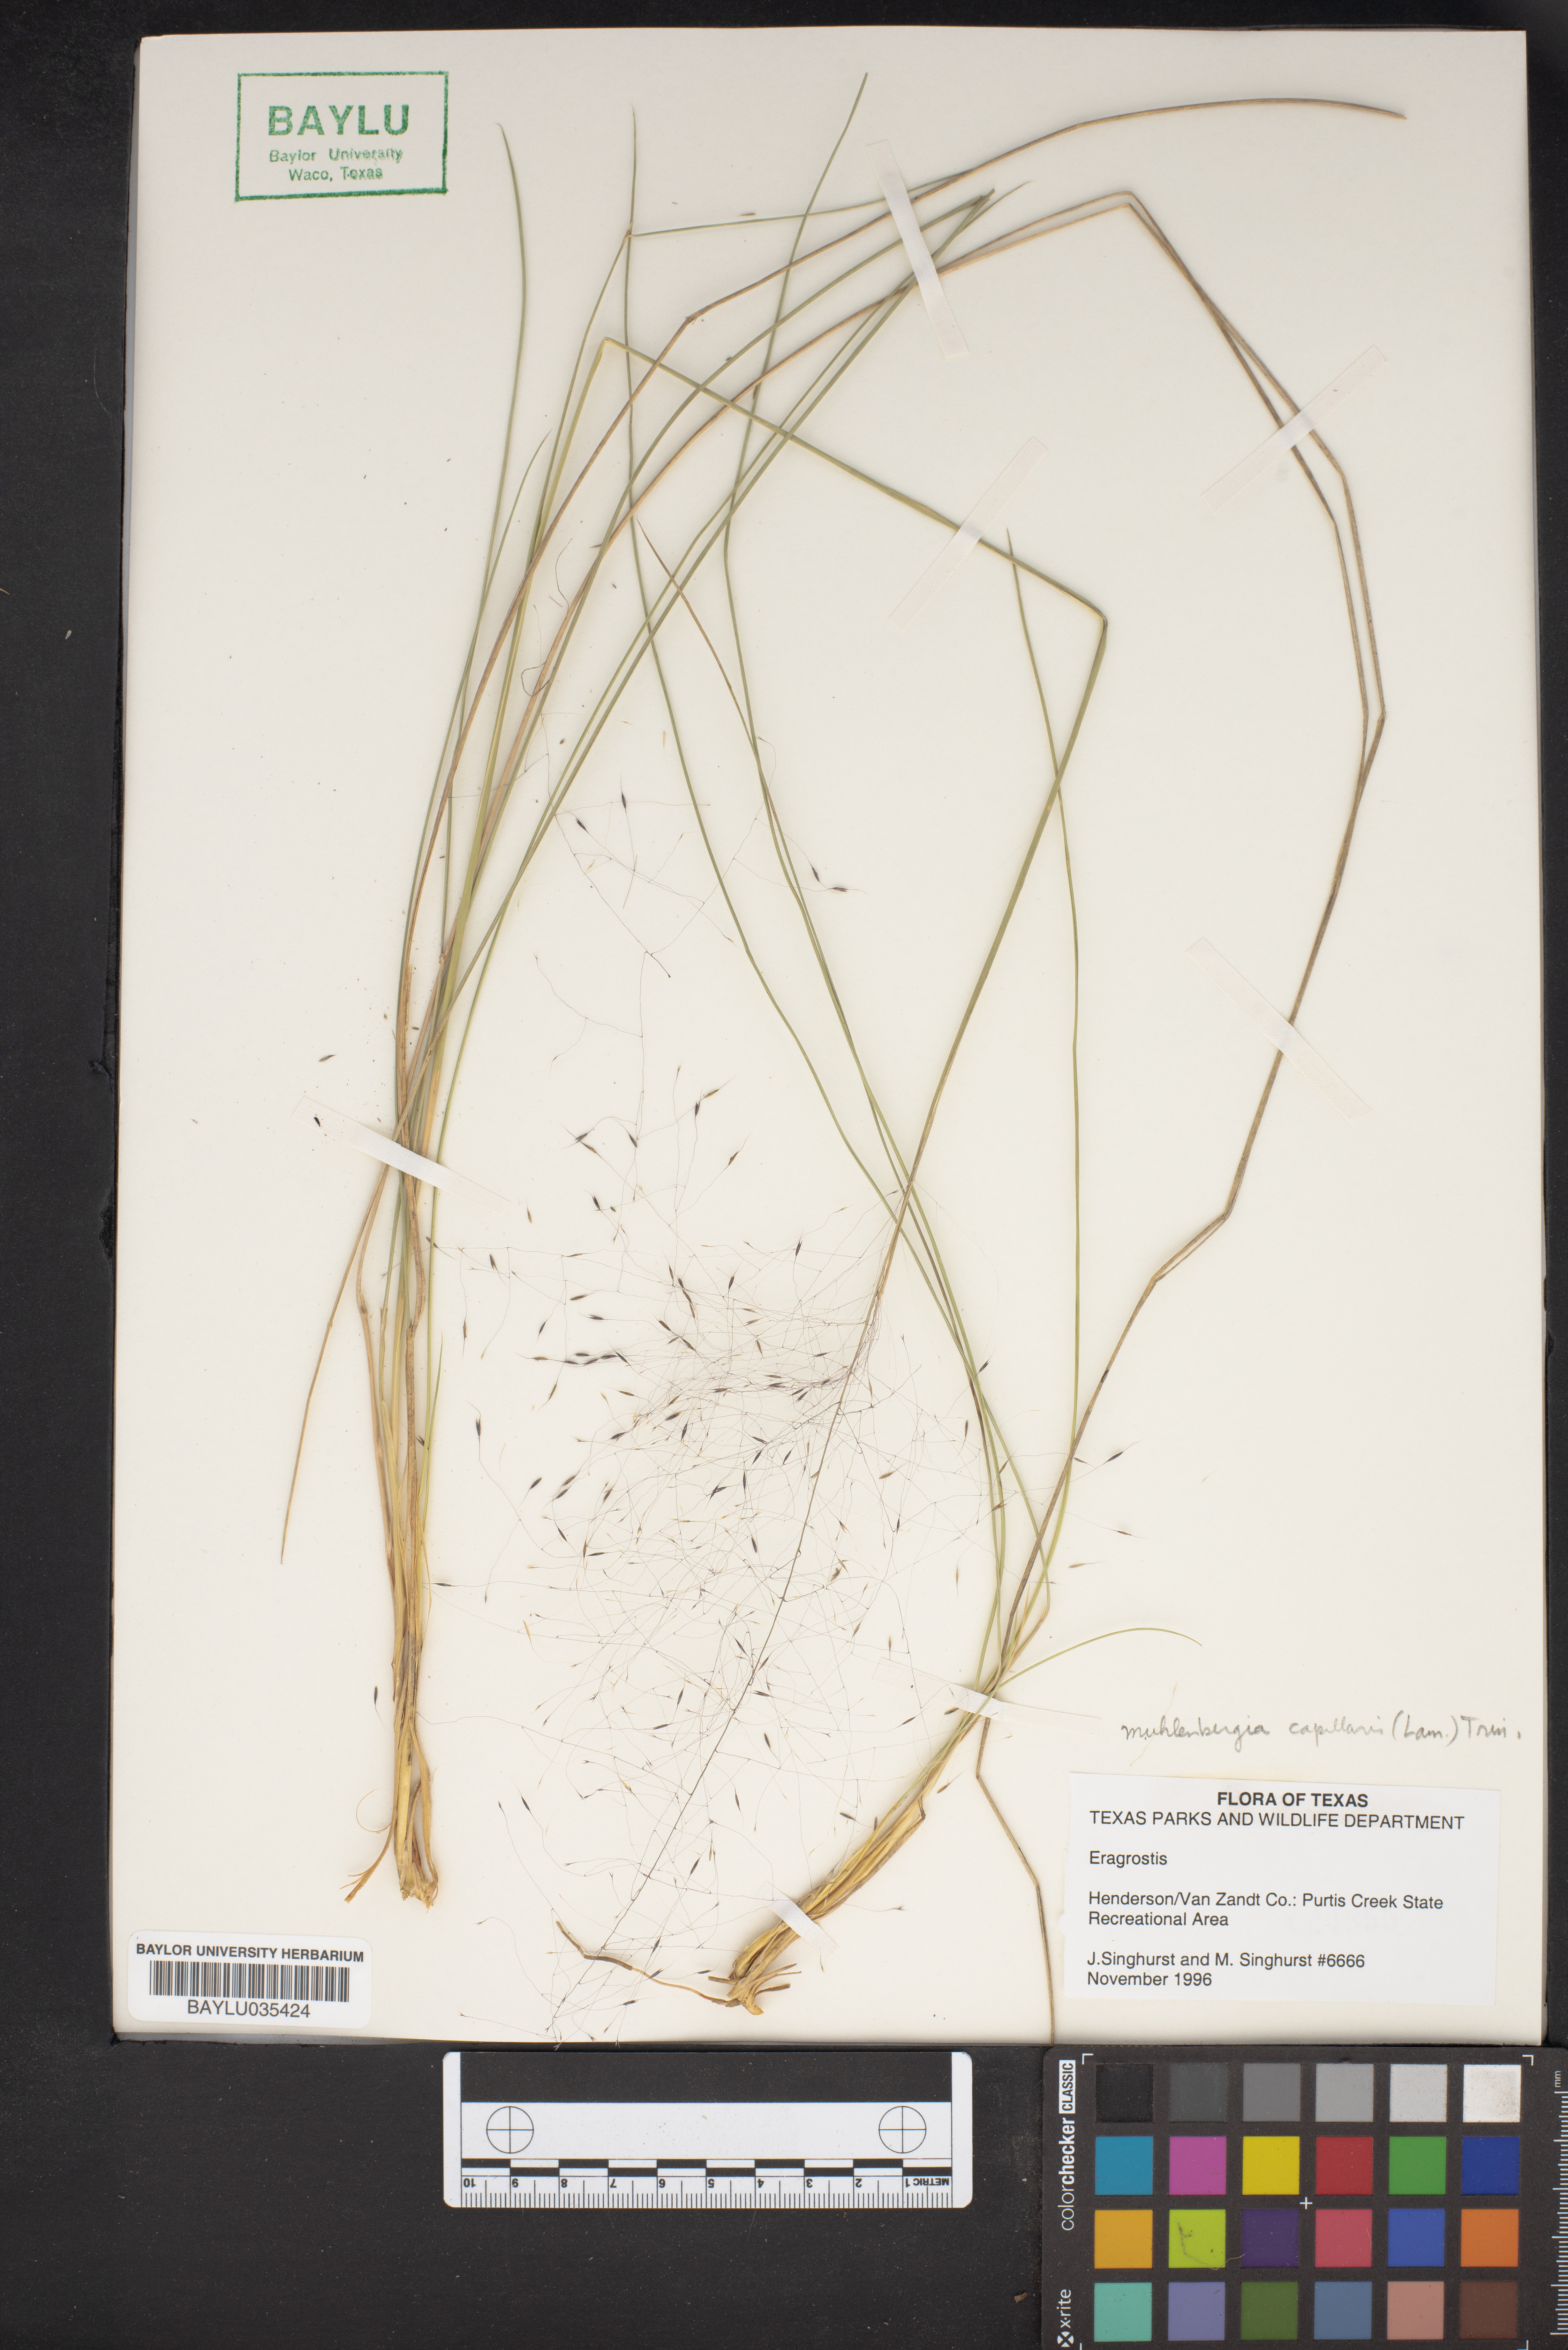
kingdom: Plantae
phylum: Tracheophyta
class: Liliopsida
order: Poales
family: Poaceae
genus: Eragrostis
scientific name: Eragrostis
